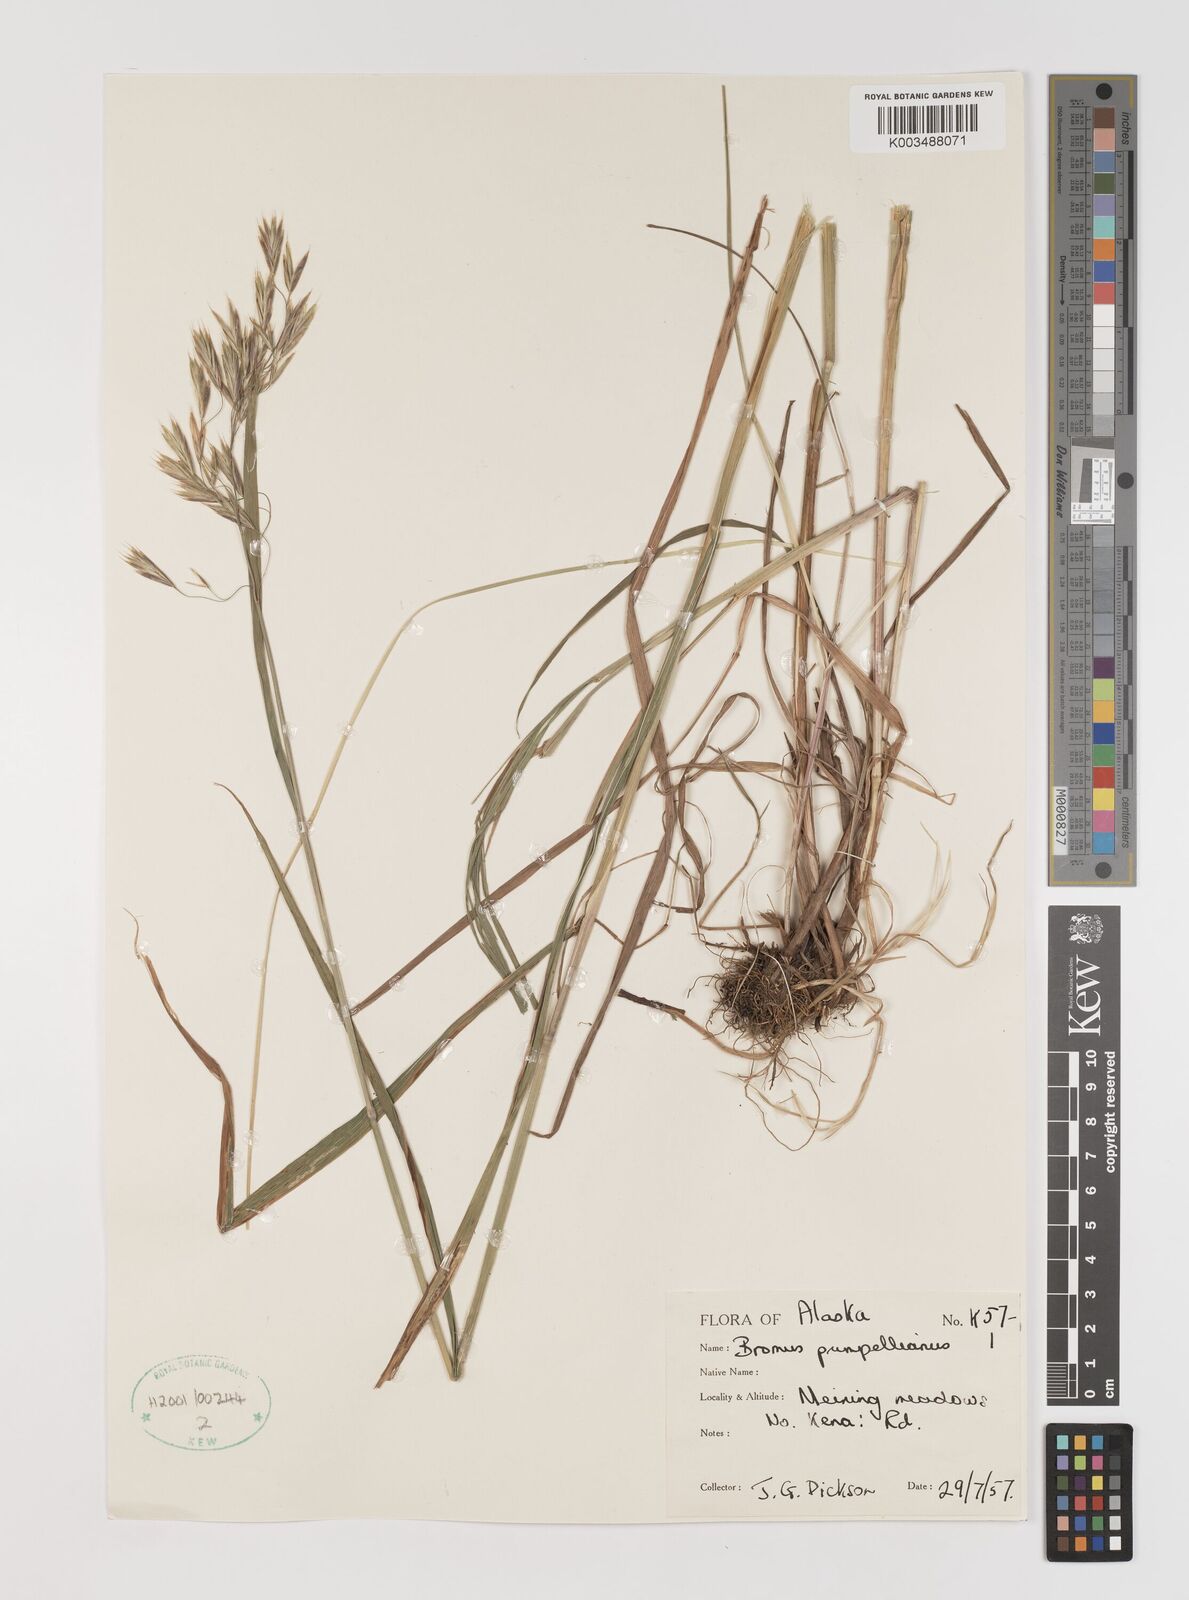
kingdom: Plantae
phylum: Tracheophyta
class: Liliopsida
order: Poales
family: Poaceae
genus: Bromus
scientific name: Bromus pumpellianus
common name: Pumpelly's brome
